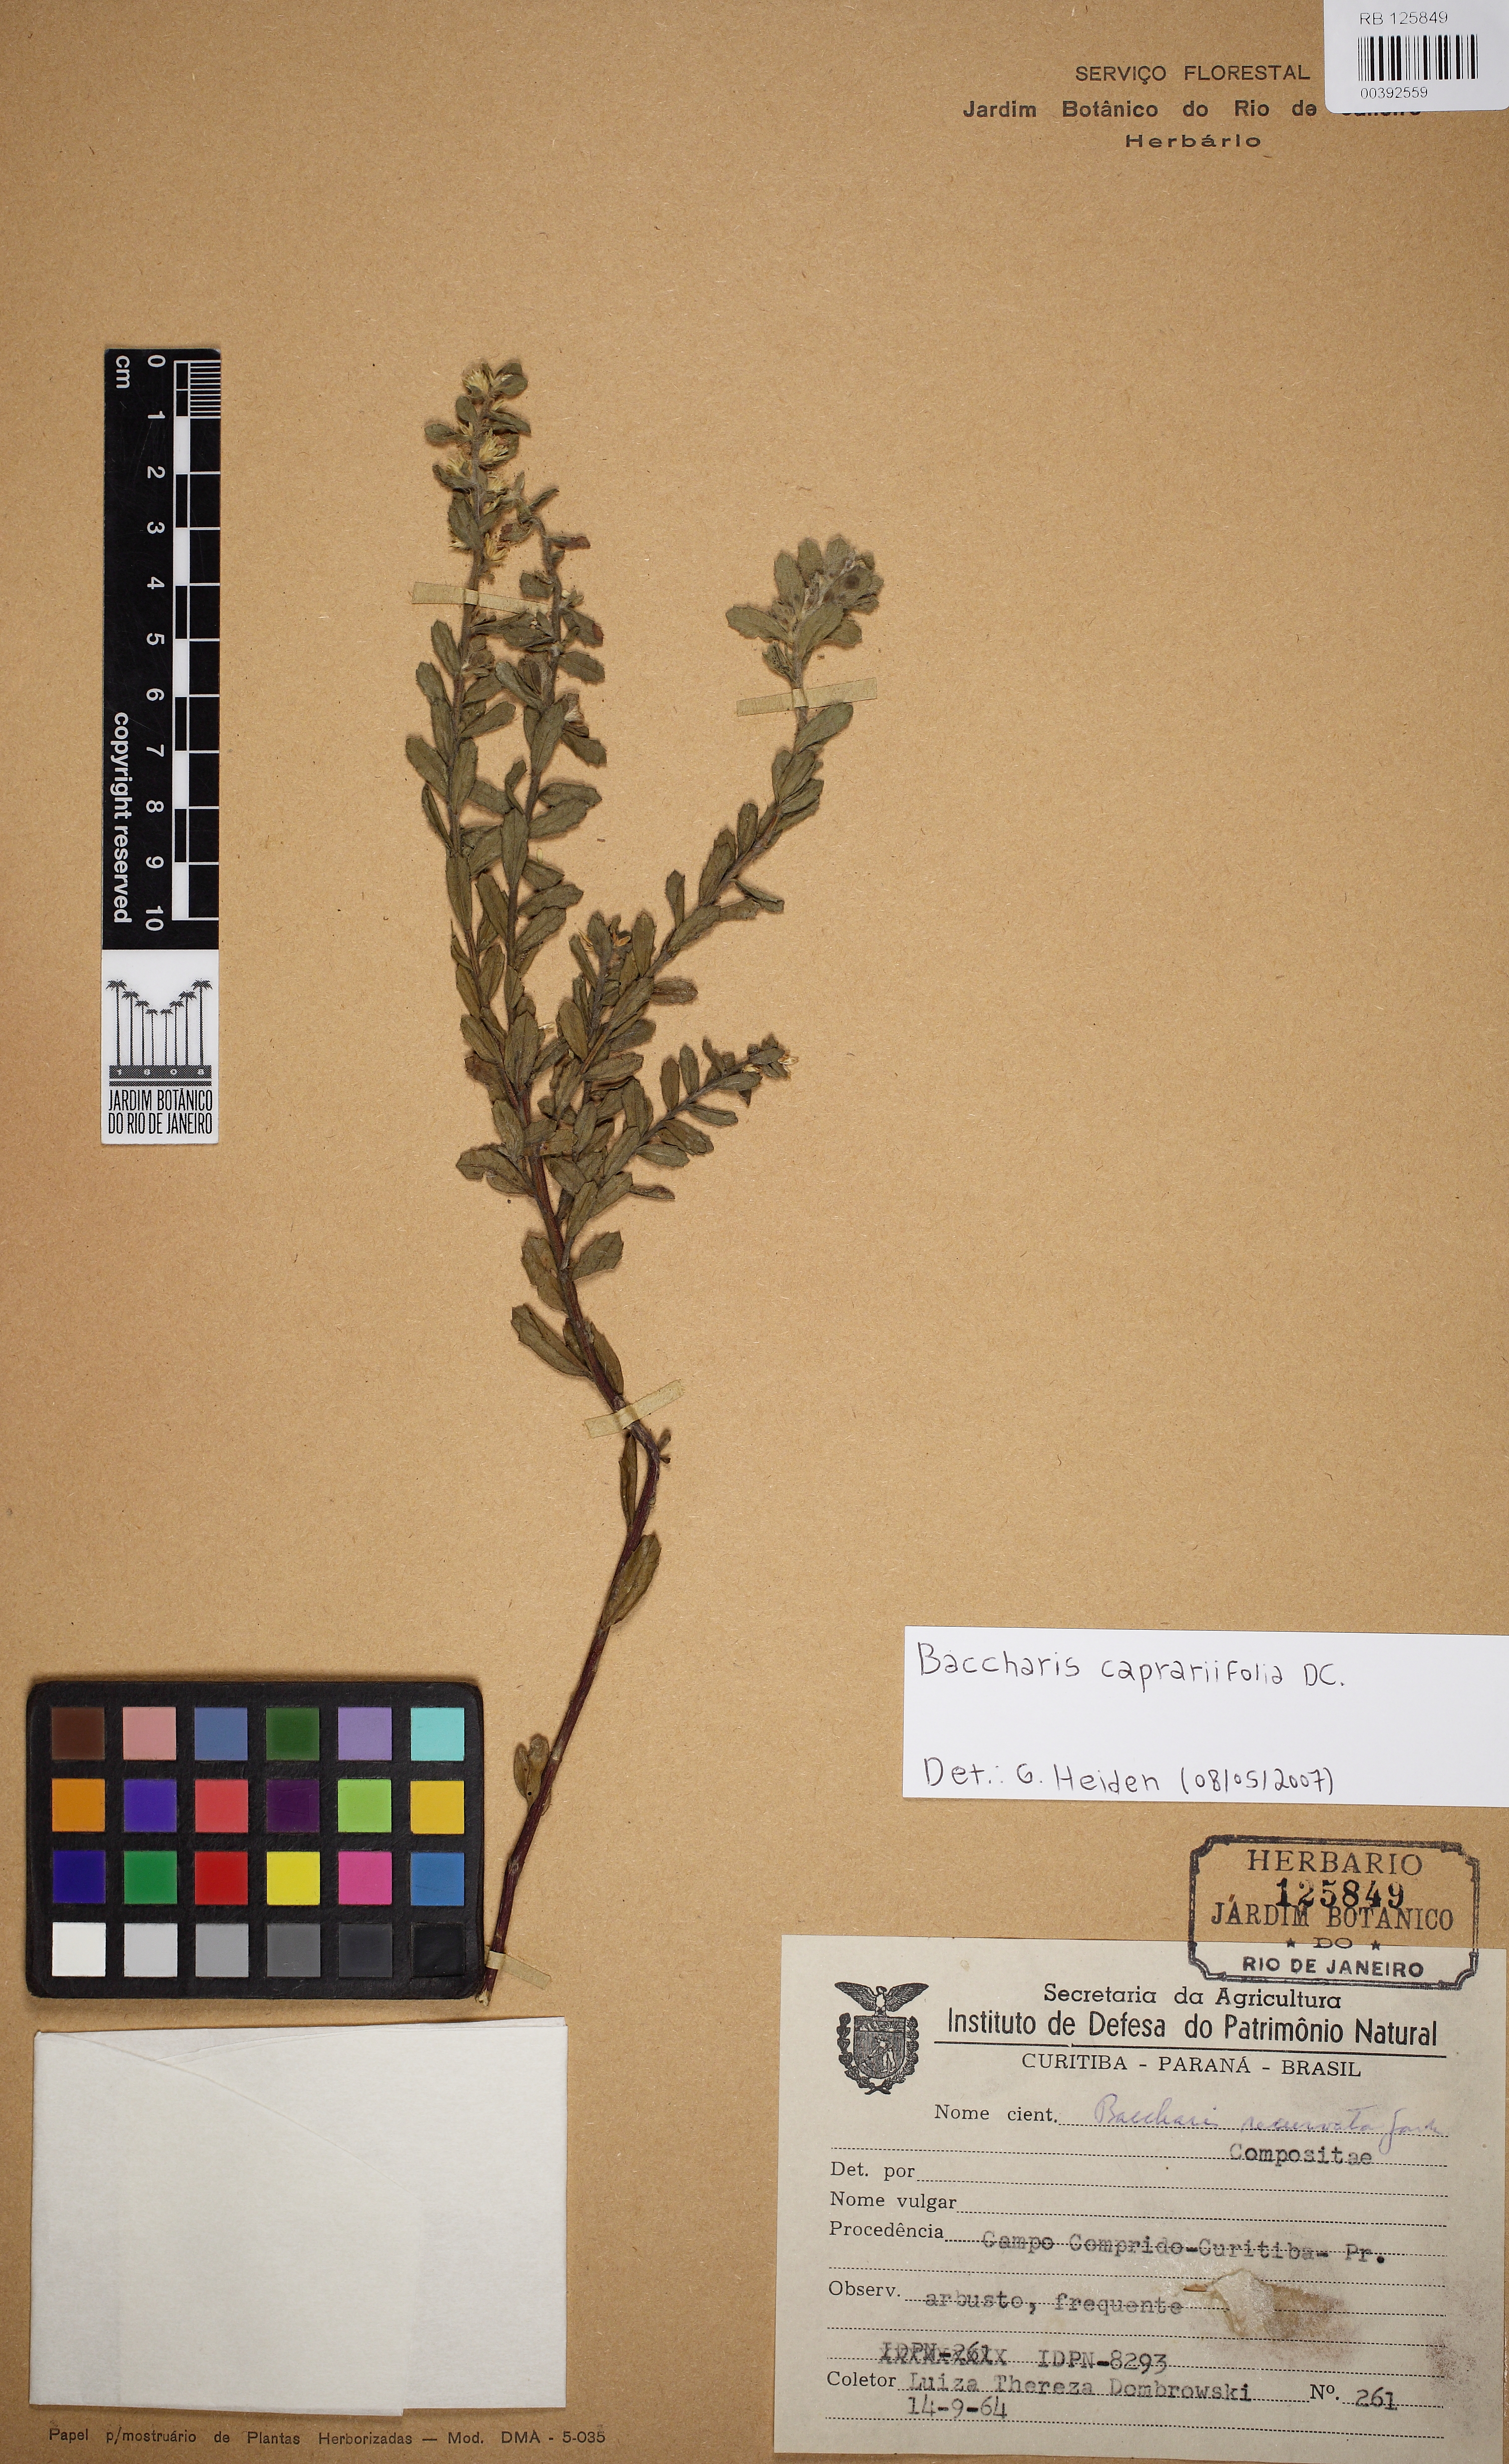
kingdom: Plantae
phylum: Tracheophyta
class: Magnoliopsida
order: Asterales
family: Asteraceae
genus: Baccharis
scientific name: Baccharis caprariifolia
